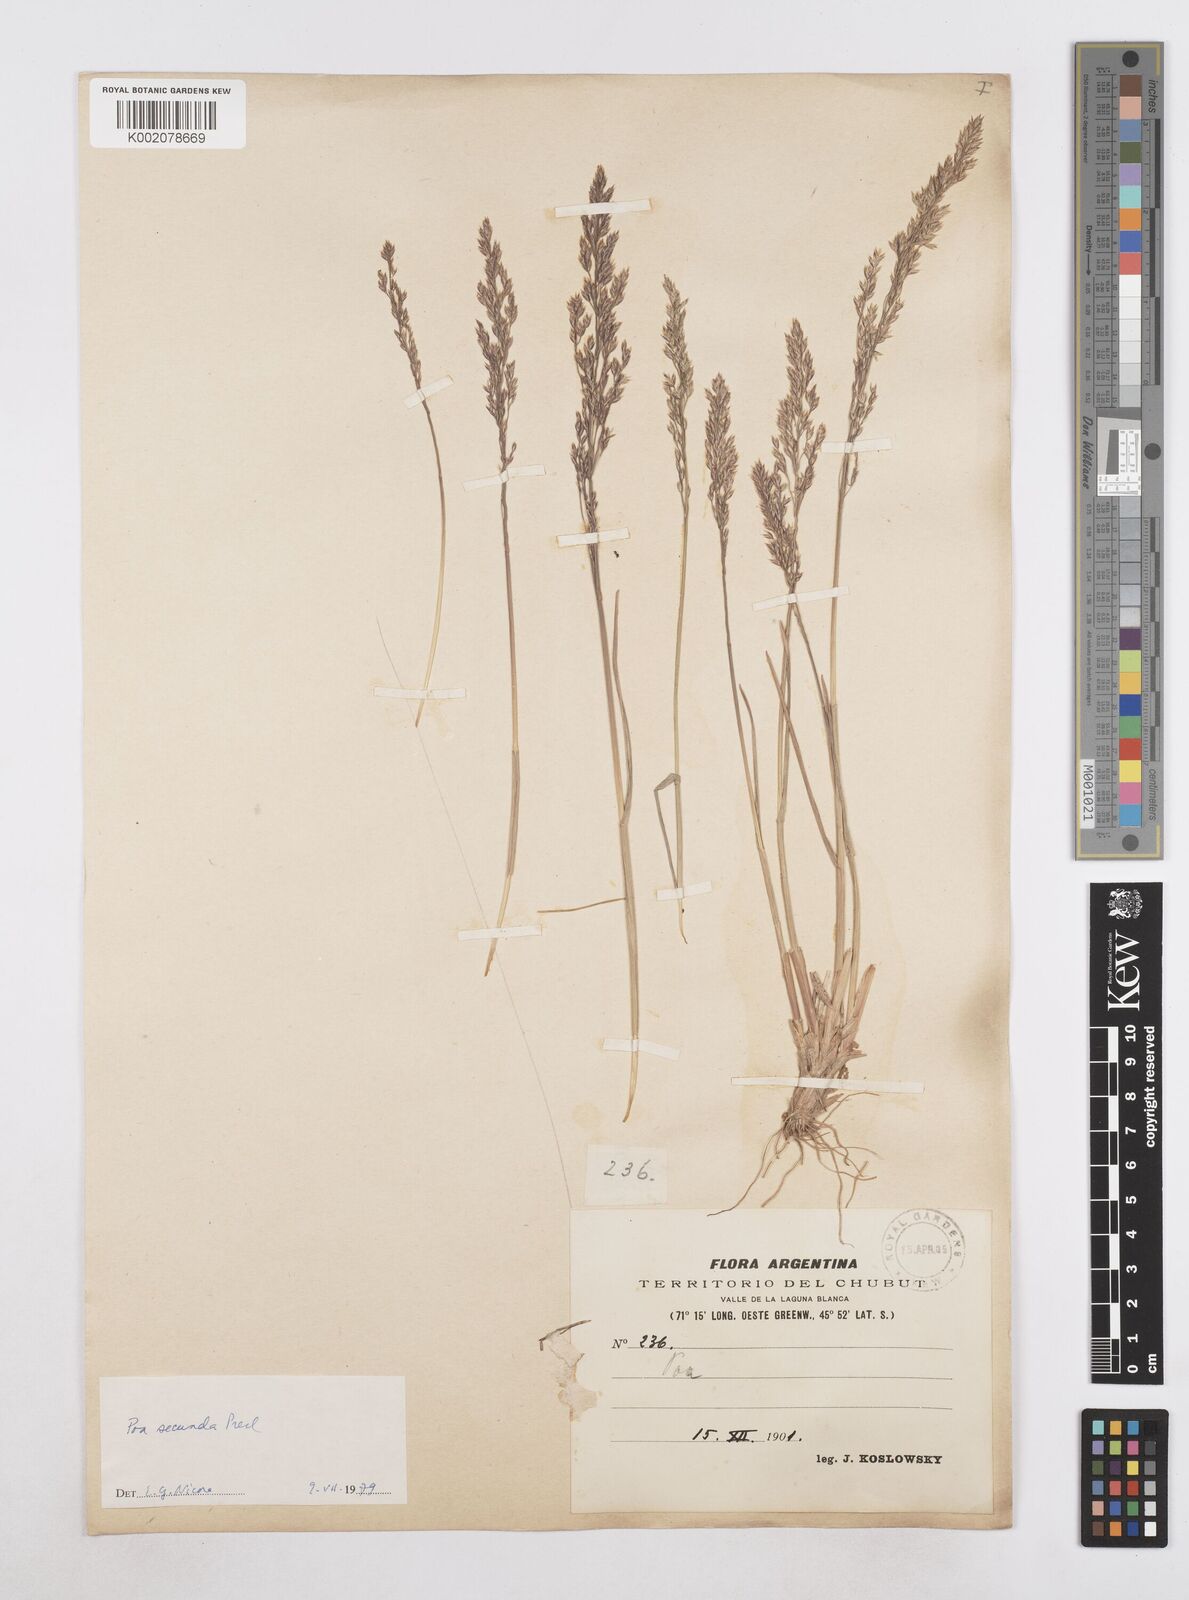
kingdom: Plantae
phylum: Tracheophyta
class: Liliopsida
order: Poales
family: Poaceae
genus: Poa
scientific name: Poa secunda
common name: Sandberg bluegrass
